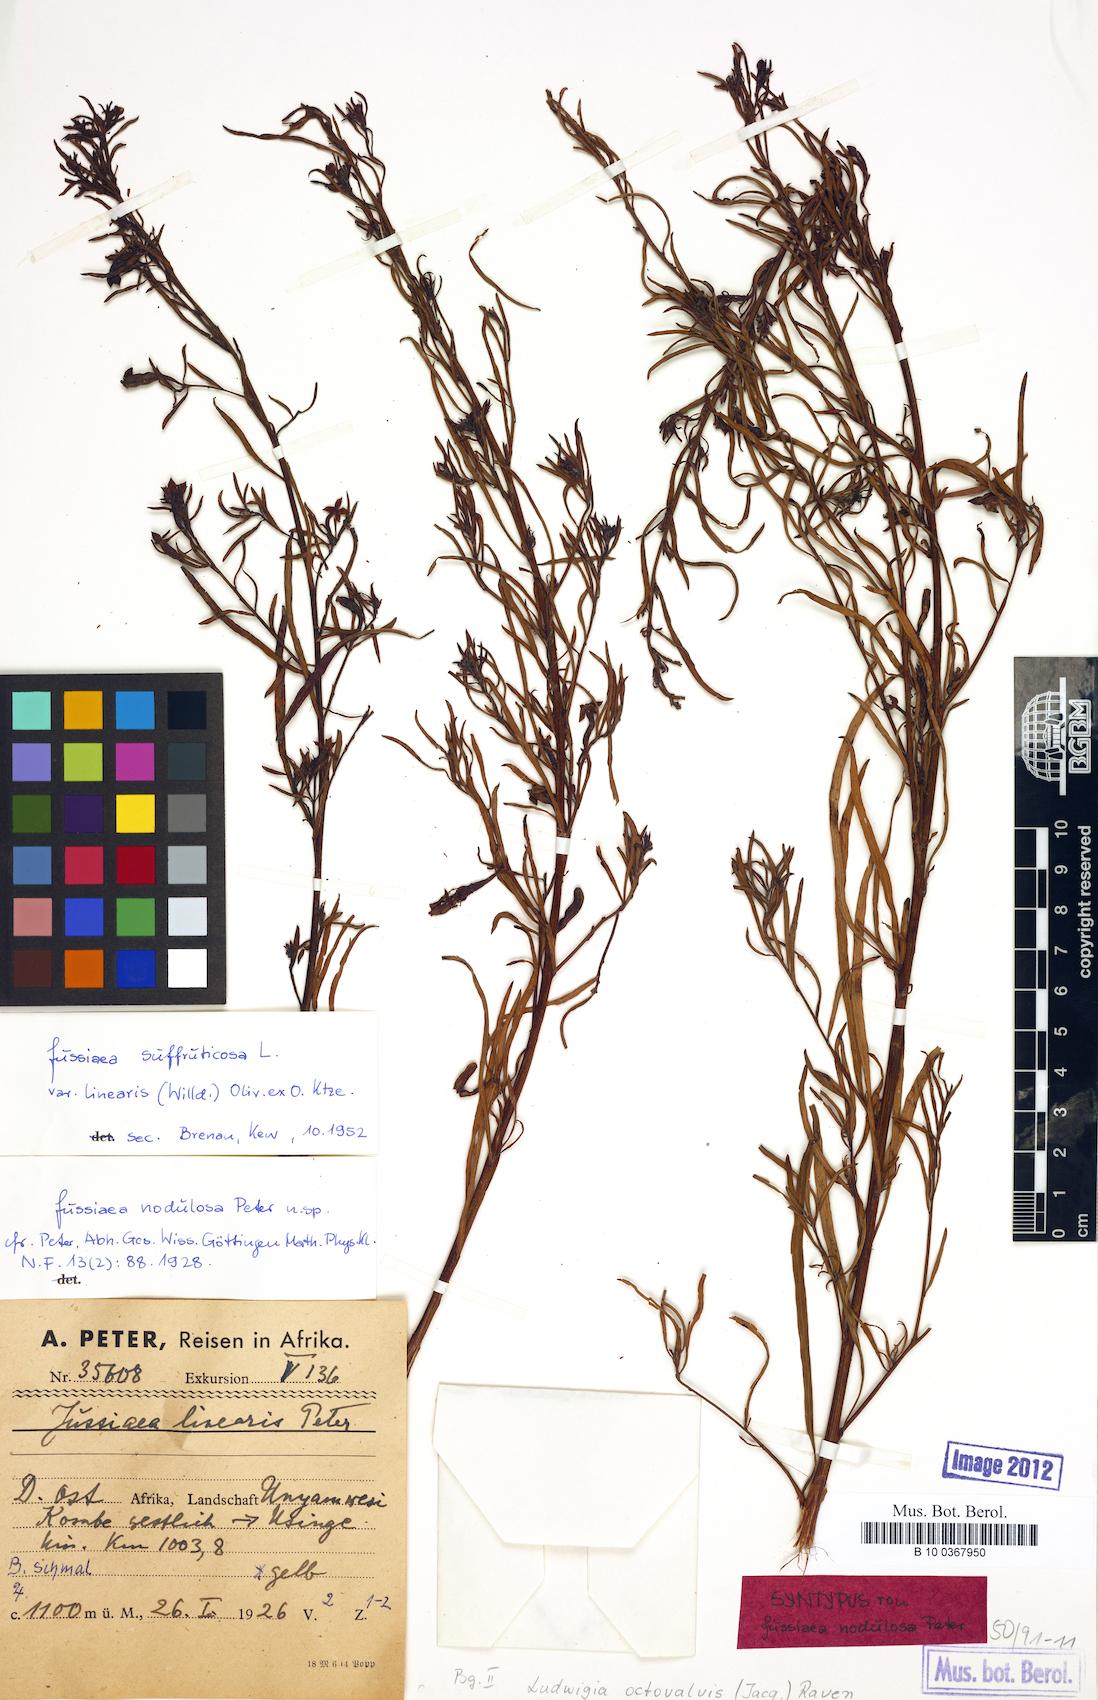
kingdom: Plantae
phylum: Tracheophyta
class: Magnoliopsida
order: Myrtales
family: Onagraceae
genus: Ludwigia
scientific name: Ludwigia octovalvis
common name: Water-primrose
